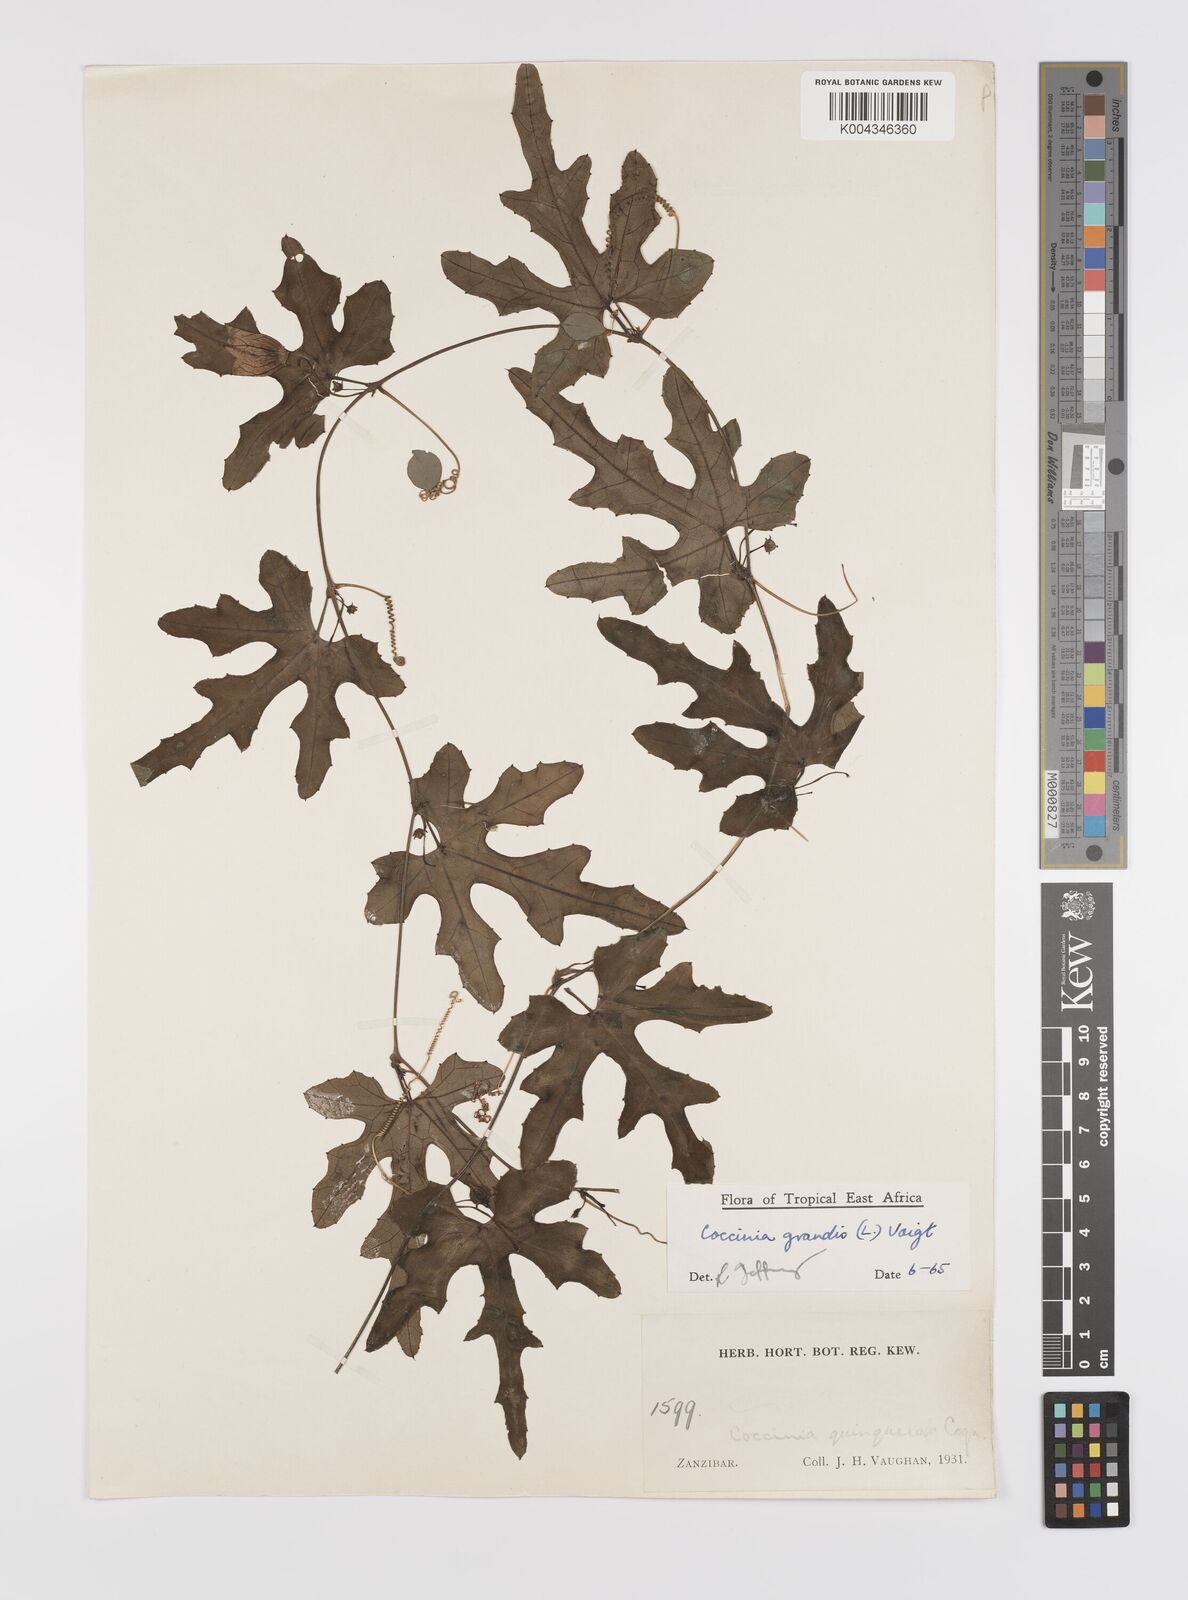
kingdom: Plantae
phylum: Tracheophyta
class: Magnoliopsida
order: Cucurbitales
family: Cucurbitaceae
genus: Coccinia
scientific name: Coccinia grandis
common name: Ivy gourd
